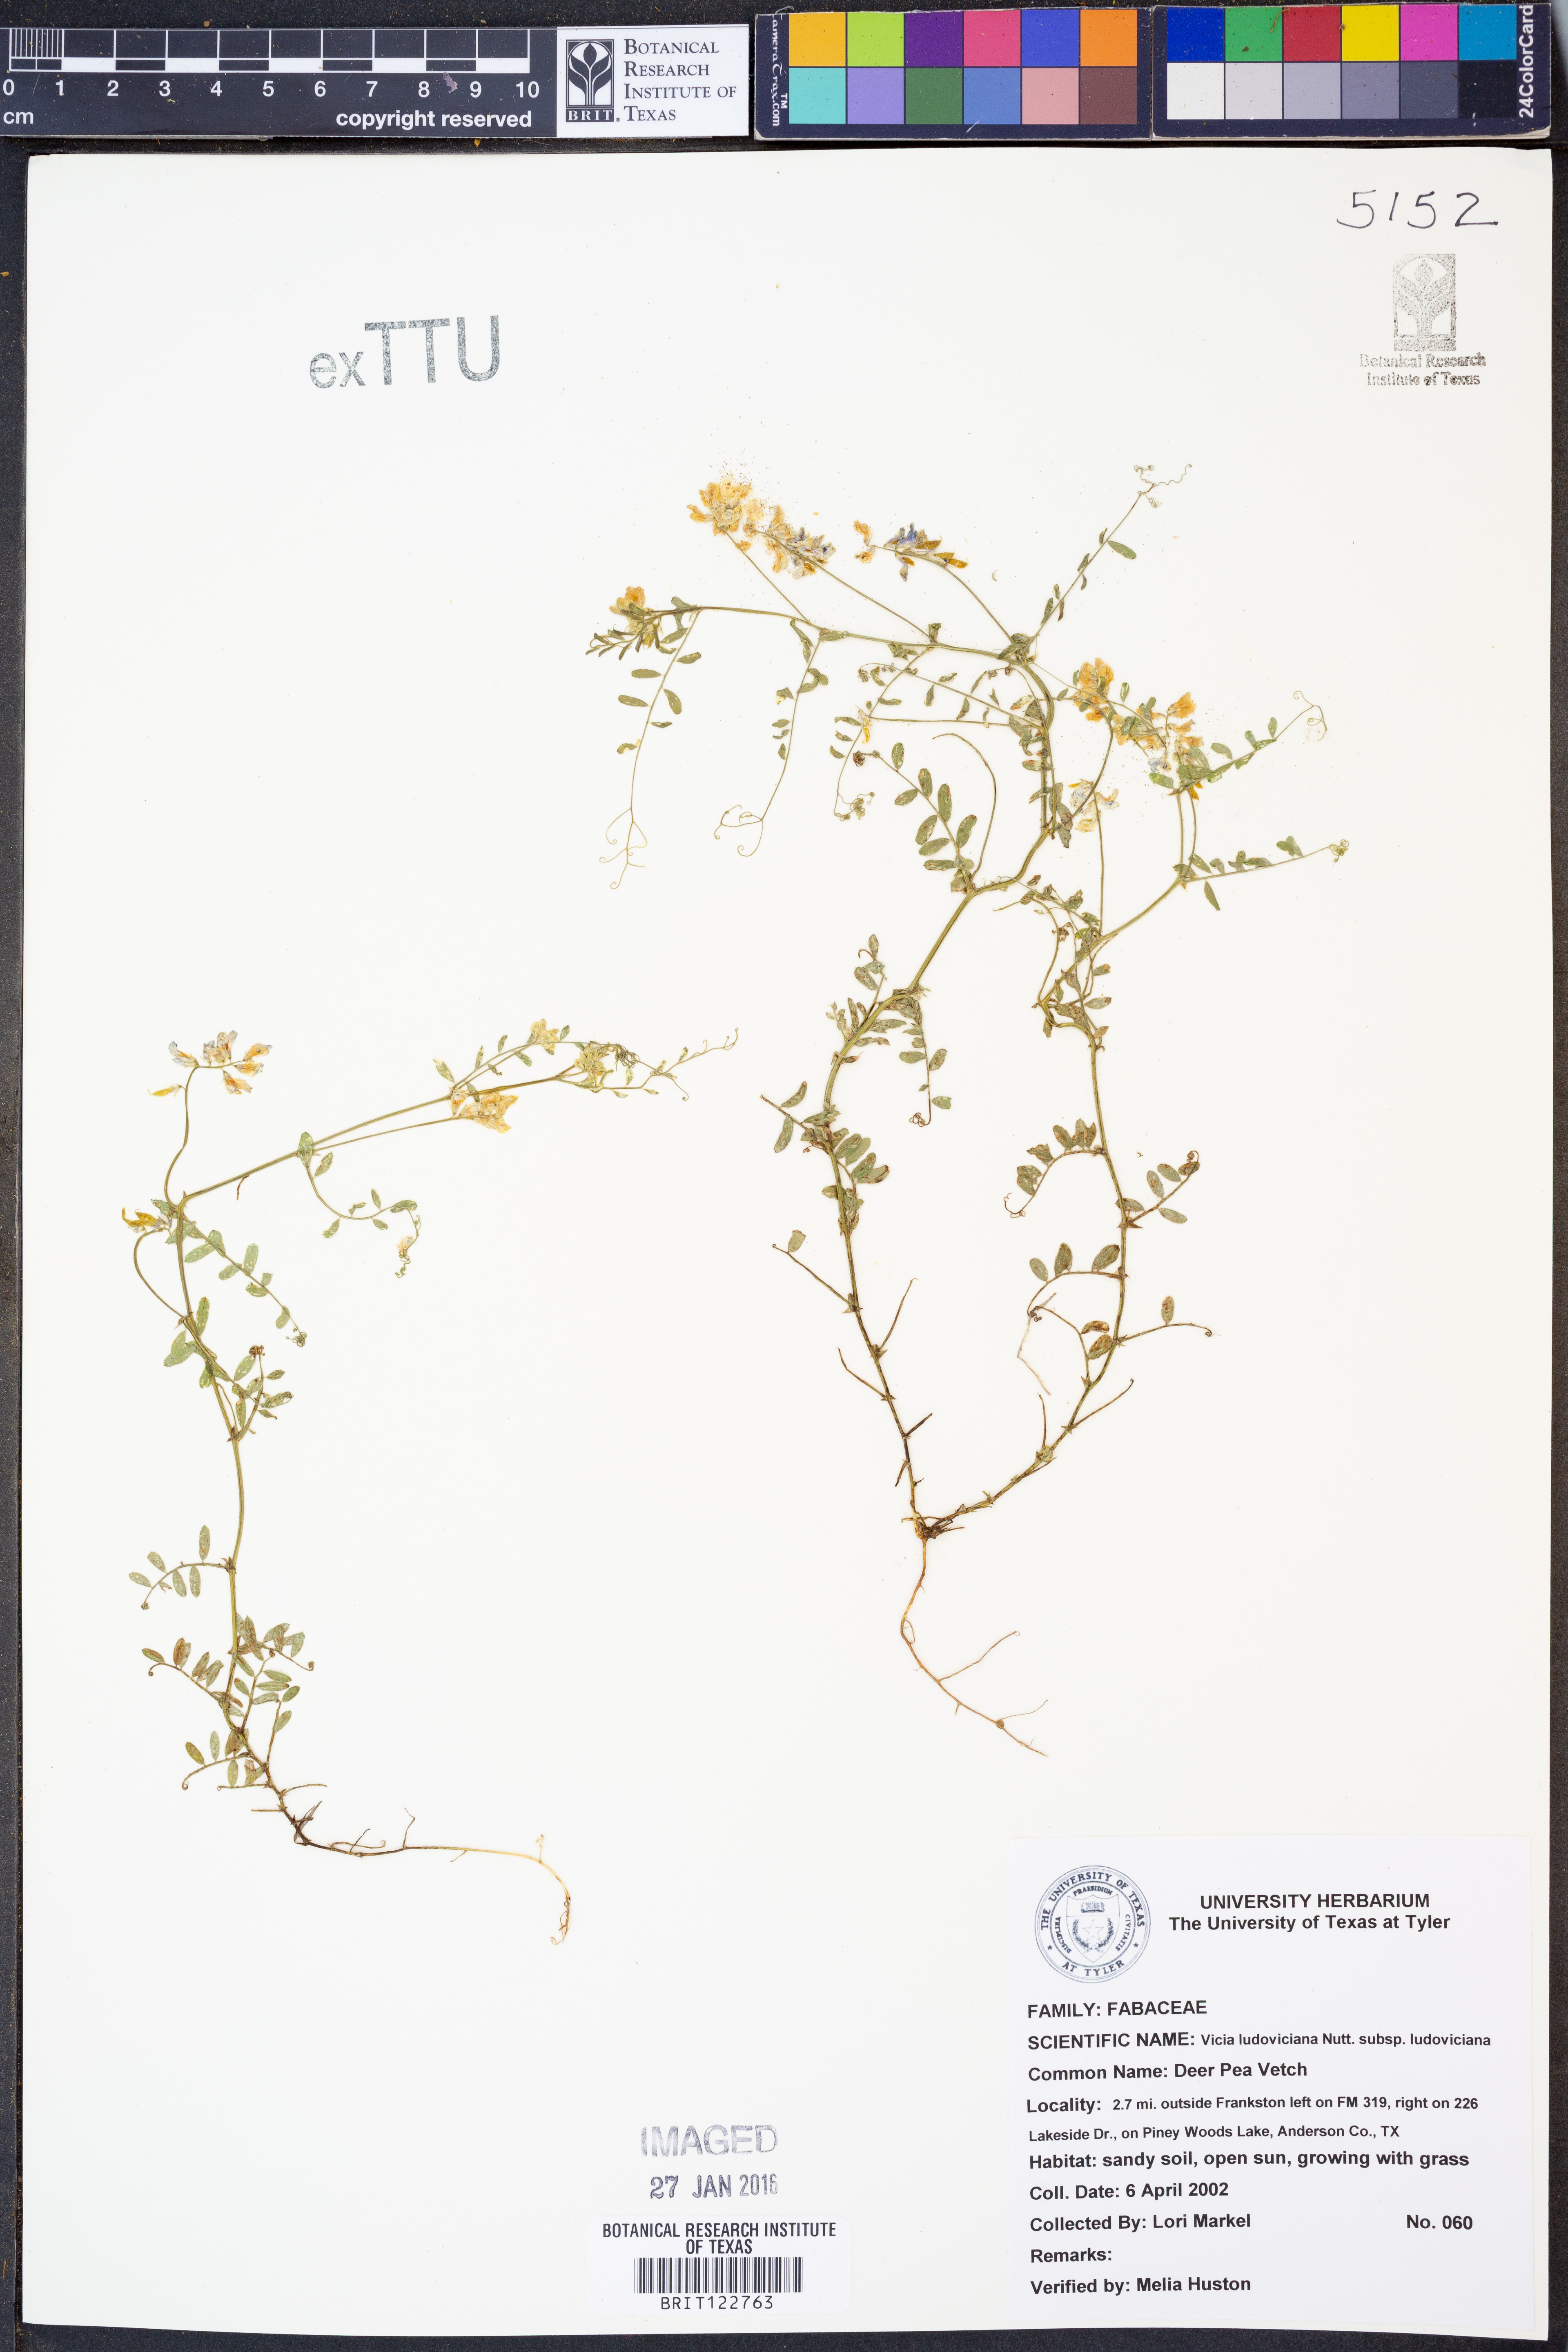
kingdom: Plantae
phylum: Tracheophyta
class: Magnoliopsida
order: Fabales
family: Fabaceae
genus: Vicia
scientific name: Vicia ludoviciana
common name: Louisiana vetch
